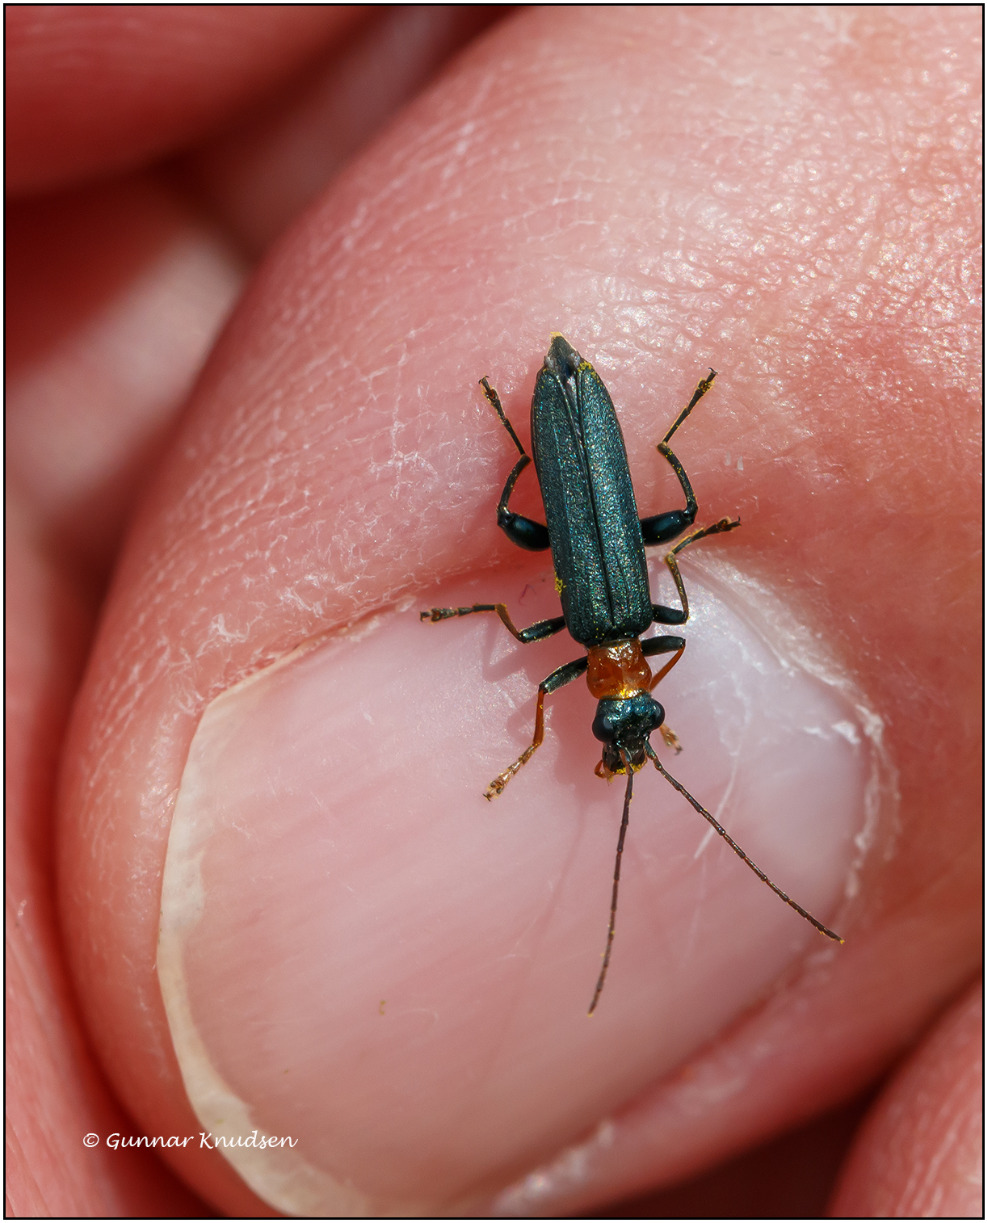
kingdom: Animalia
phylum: Arthropoda
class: Insecta
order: Coleoptera
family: Oedemeridae
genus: Oedemera
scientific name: Oedemera croceicollis
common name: Orangebrystet solbille
